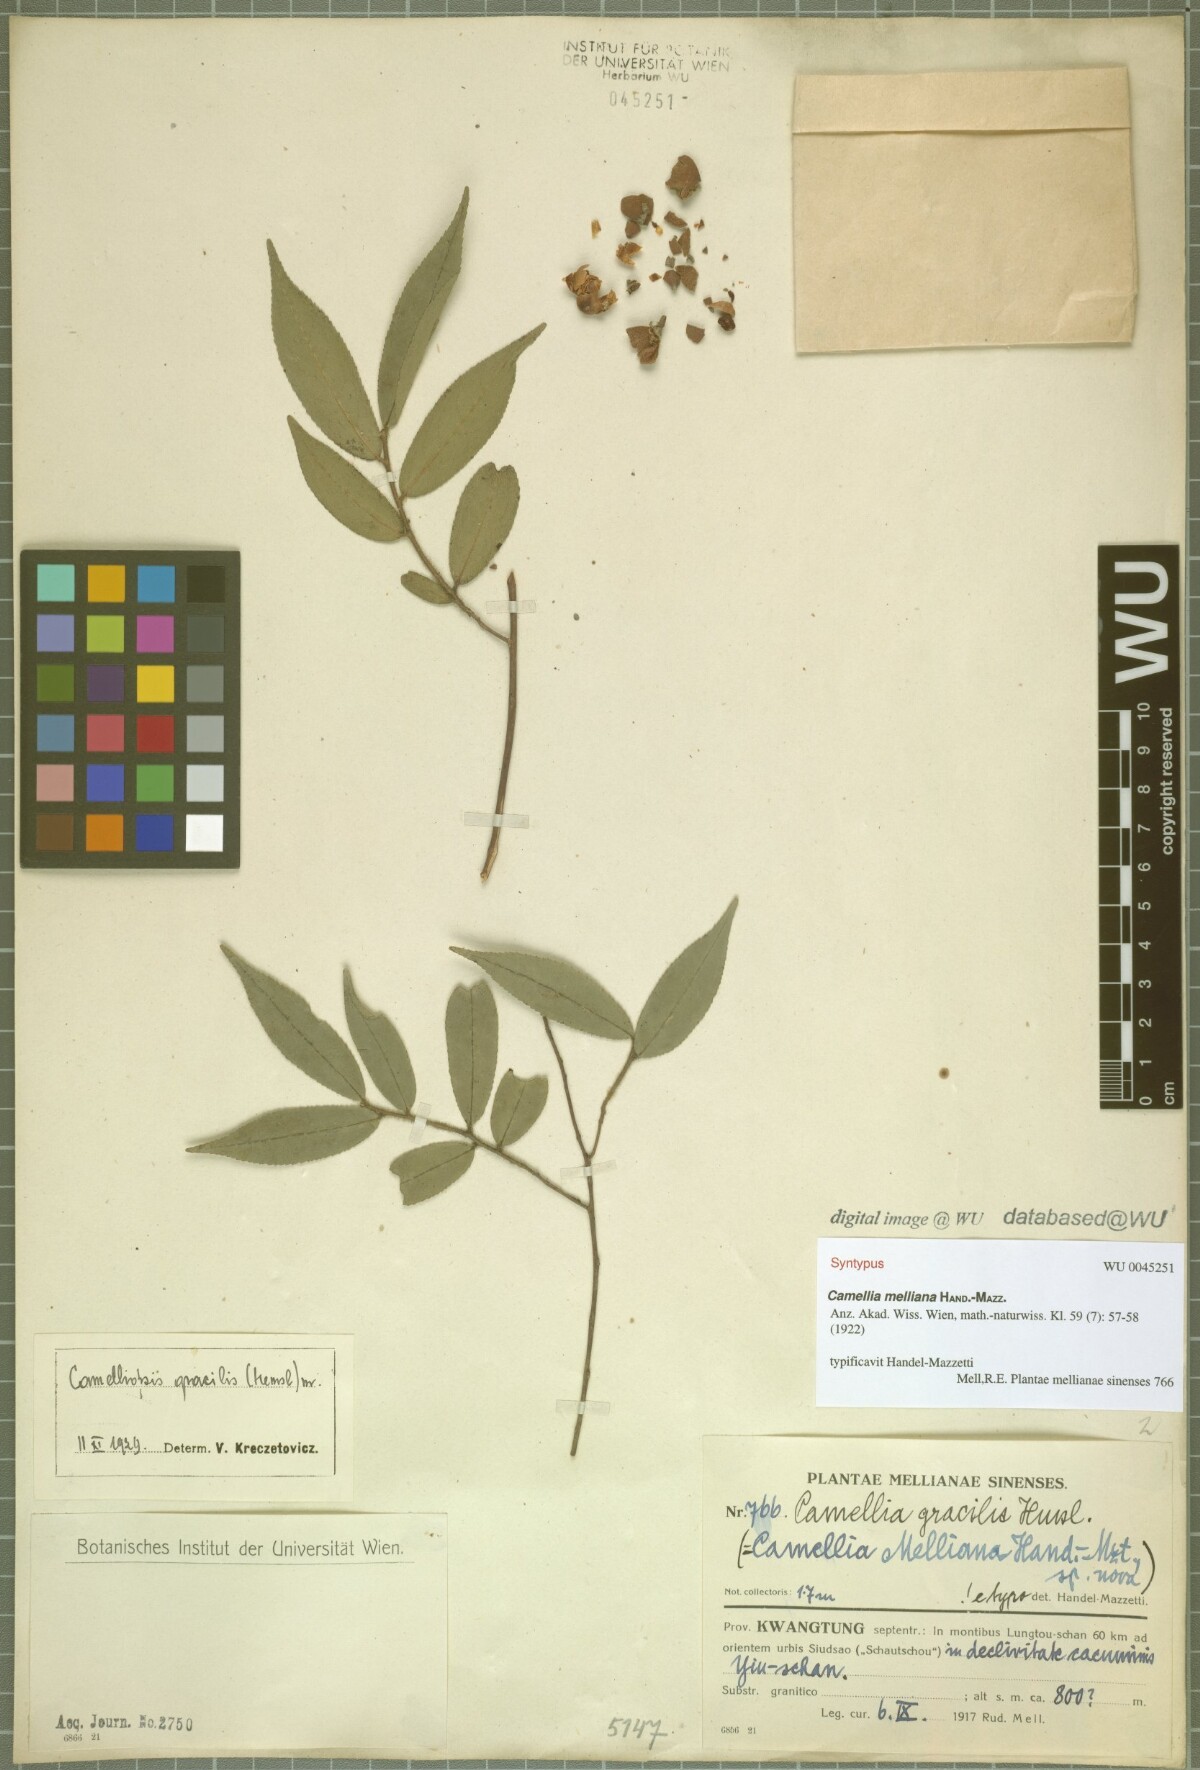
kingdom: Plantae
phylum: Tracheophyta
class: Magnoliopsida
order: Ericales
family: Theaceae
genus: Camellia
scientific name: Camellia melliana
